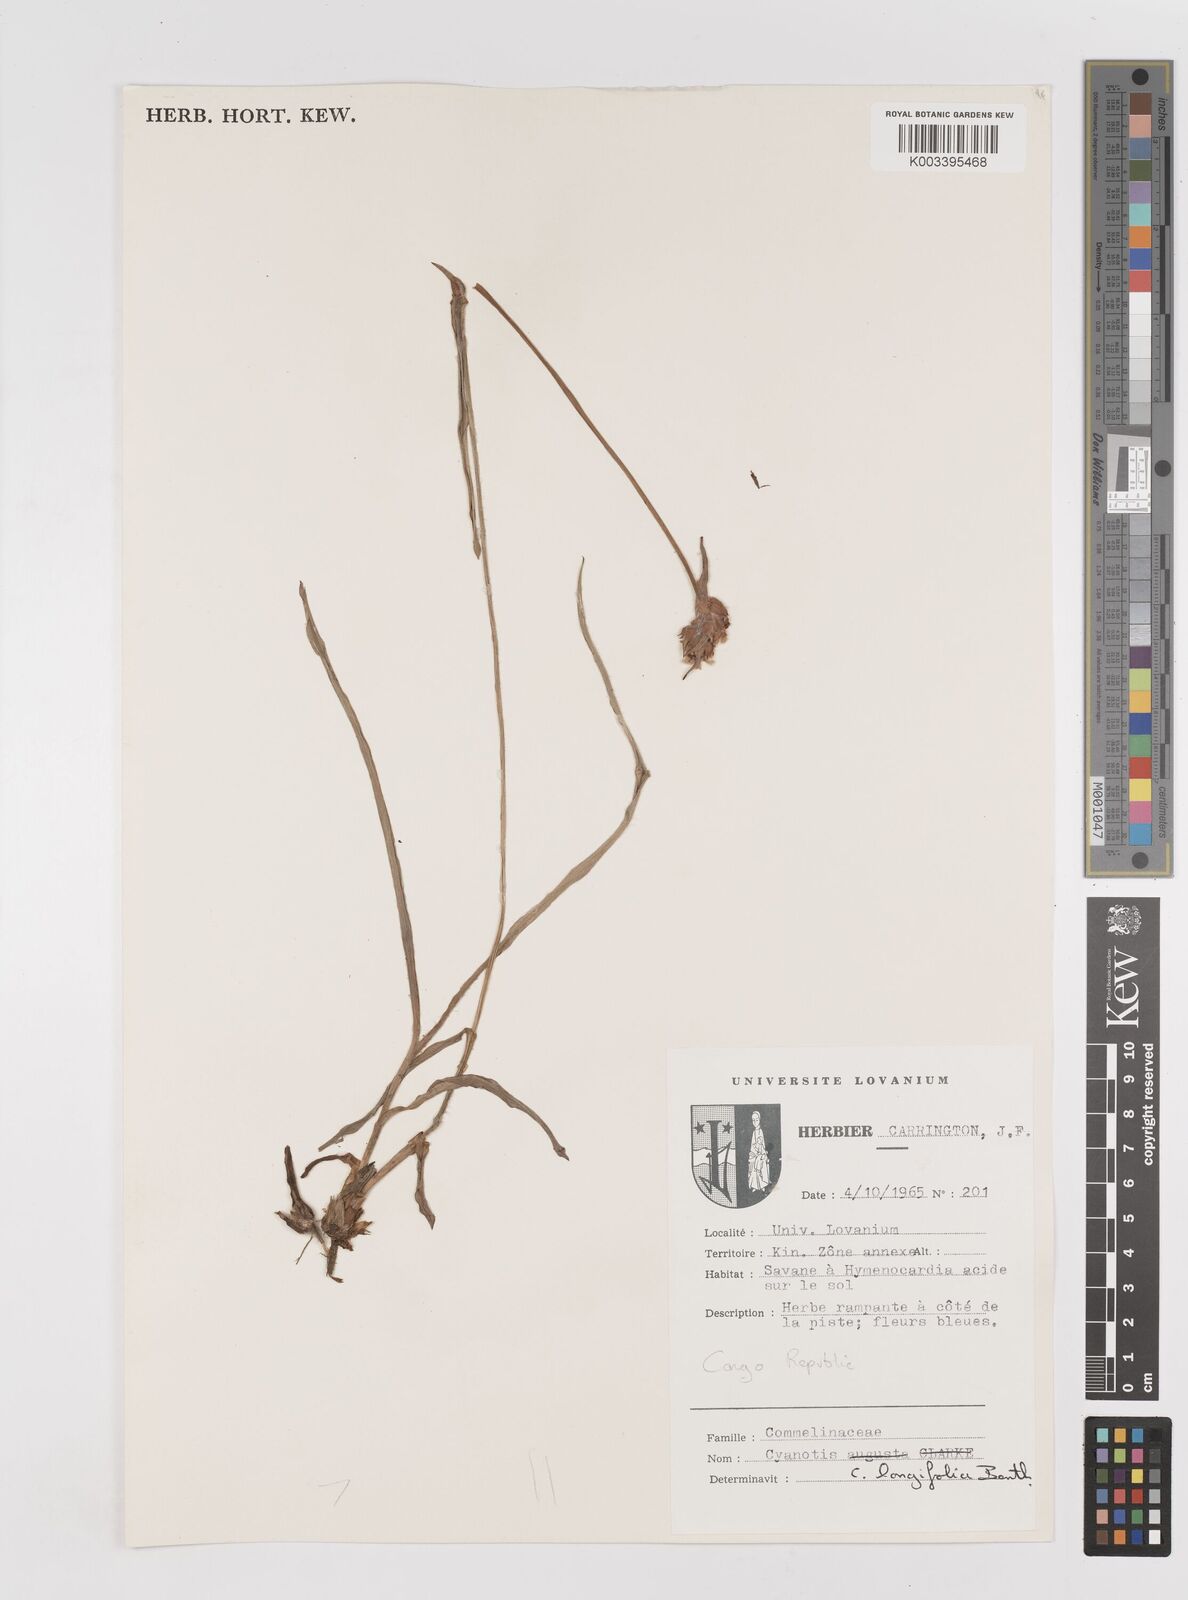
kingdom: Plantae
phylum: Tracheophyta
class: Liliopsida
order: Commelinales
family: Commelinaceae
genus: Cyanotis
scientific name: Cyanotis longifolia
